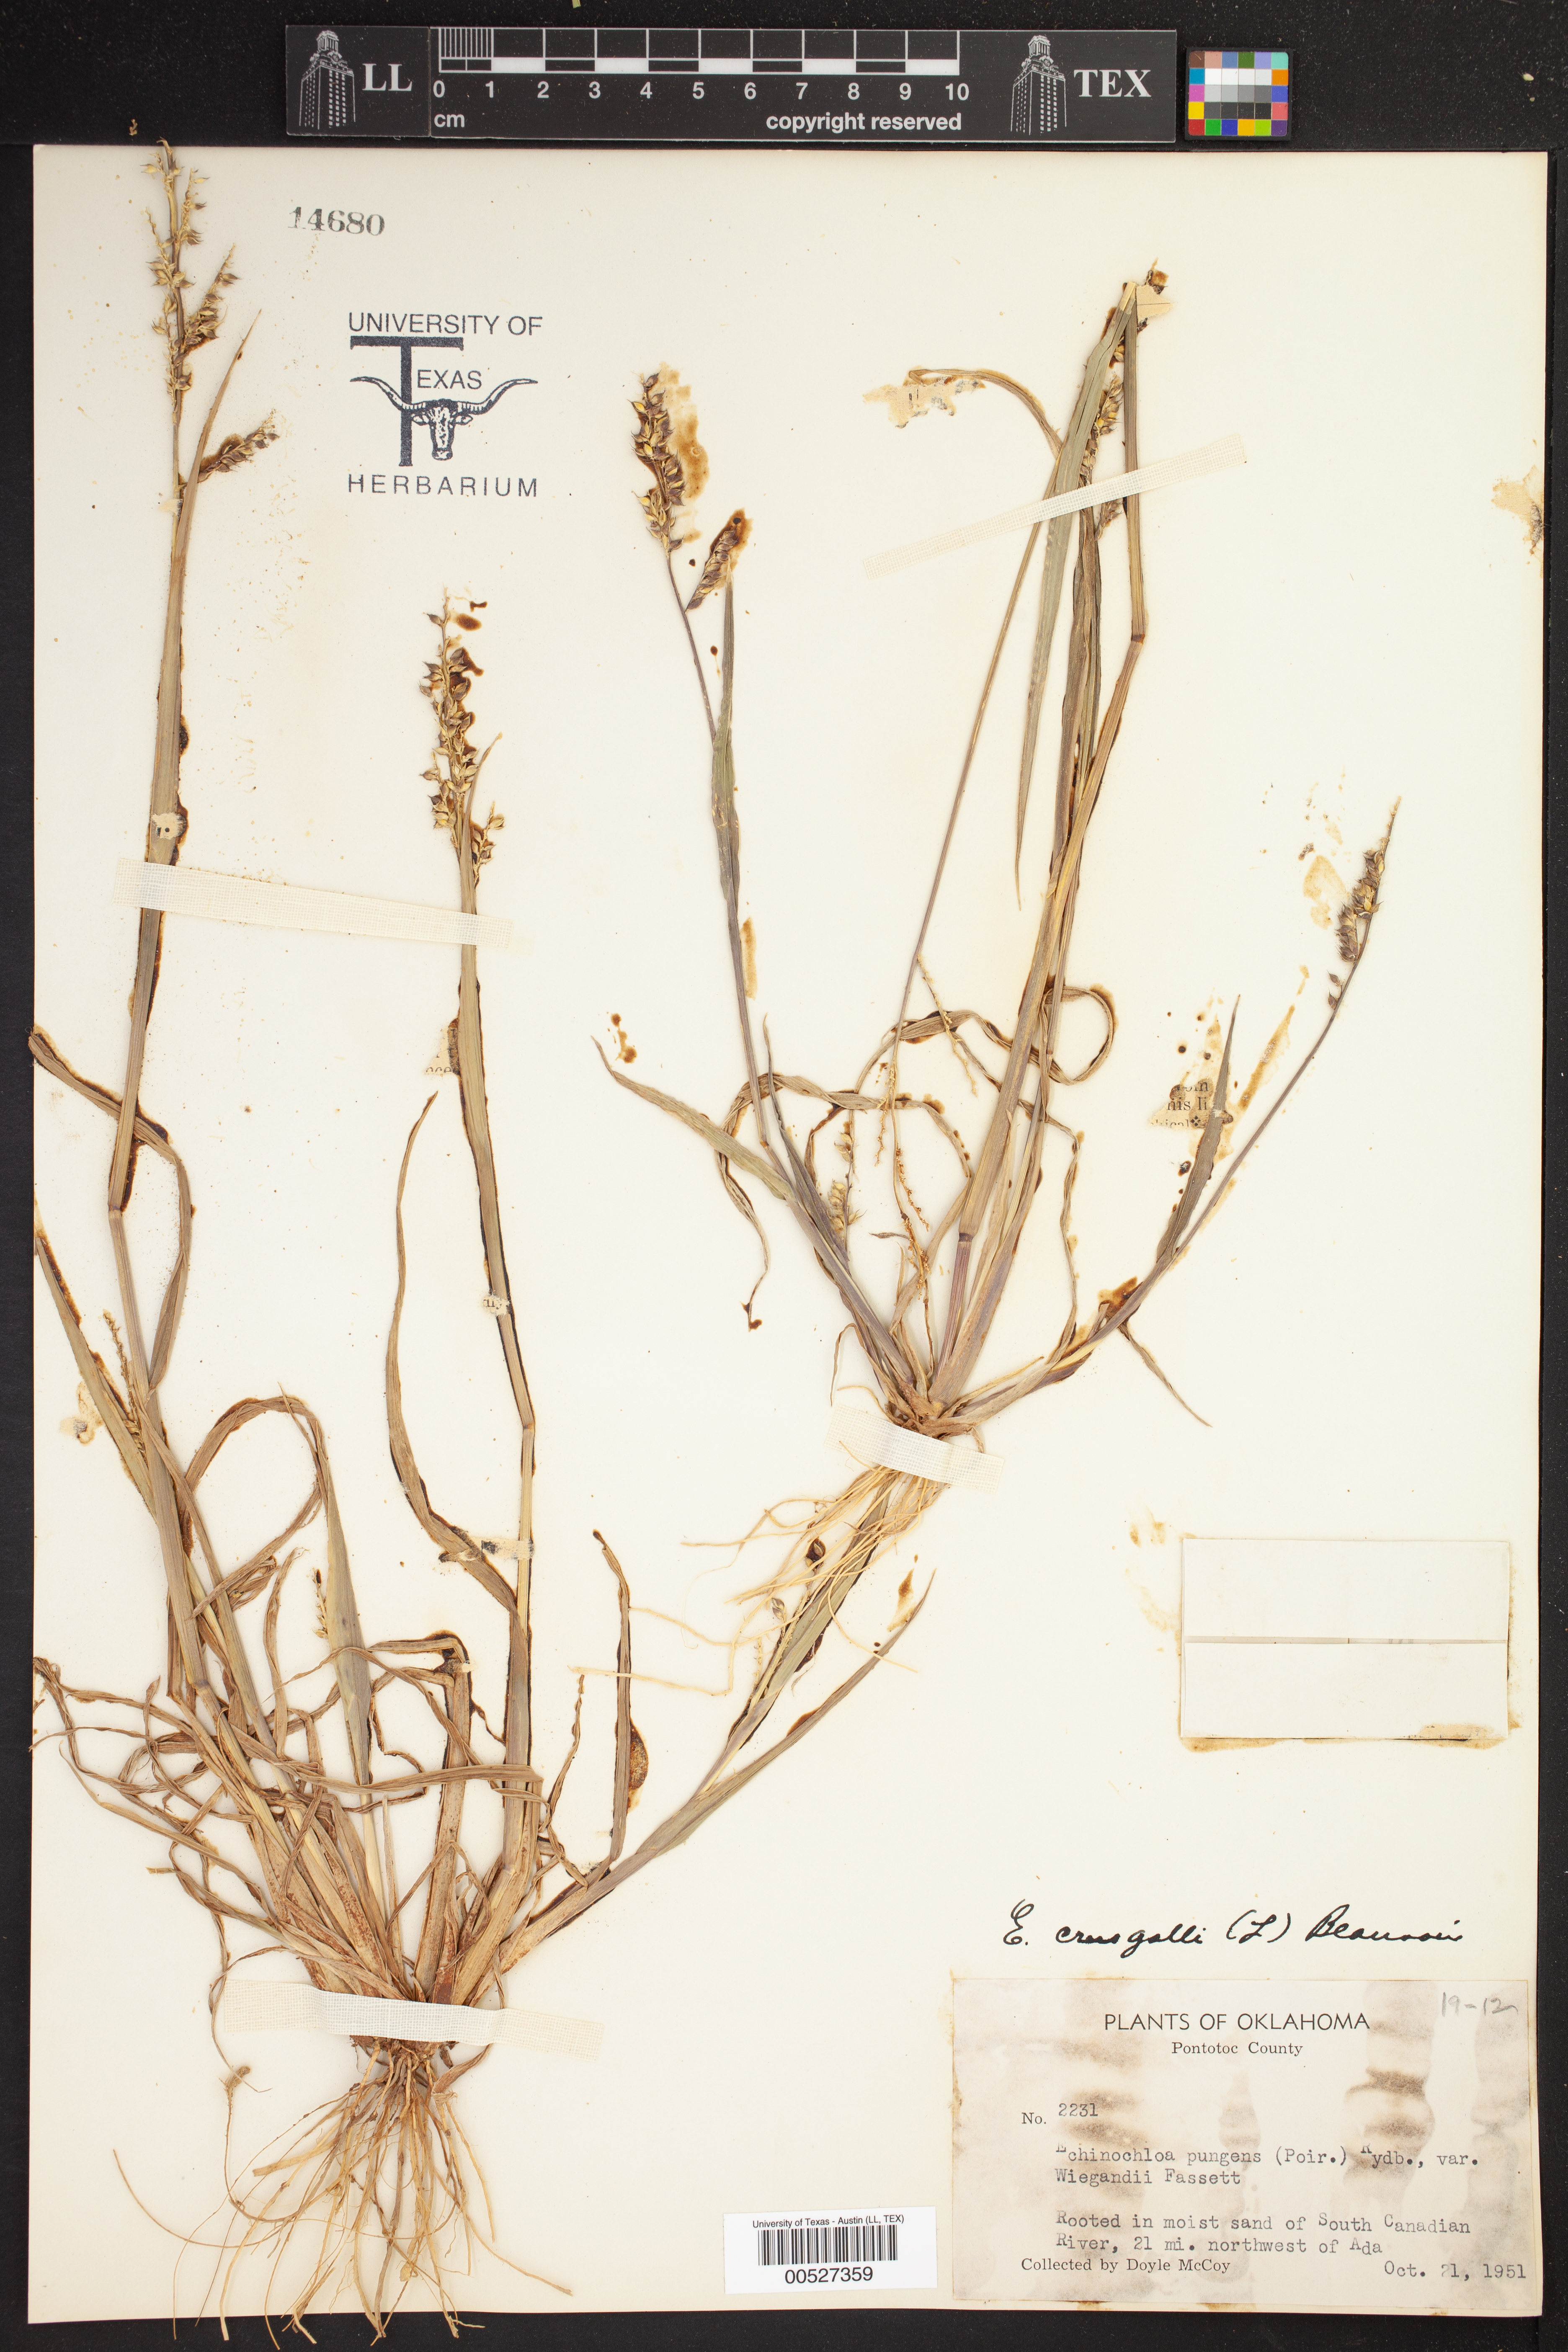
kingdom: Plantae
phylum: Tracheophyta
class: Liliopsida
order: Poales
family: Poaceae
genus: Echinochloa
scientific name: Echinochloa muricata
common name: American barnyard grass
